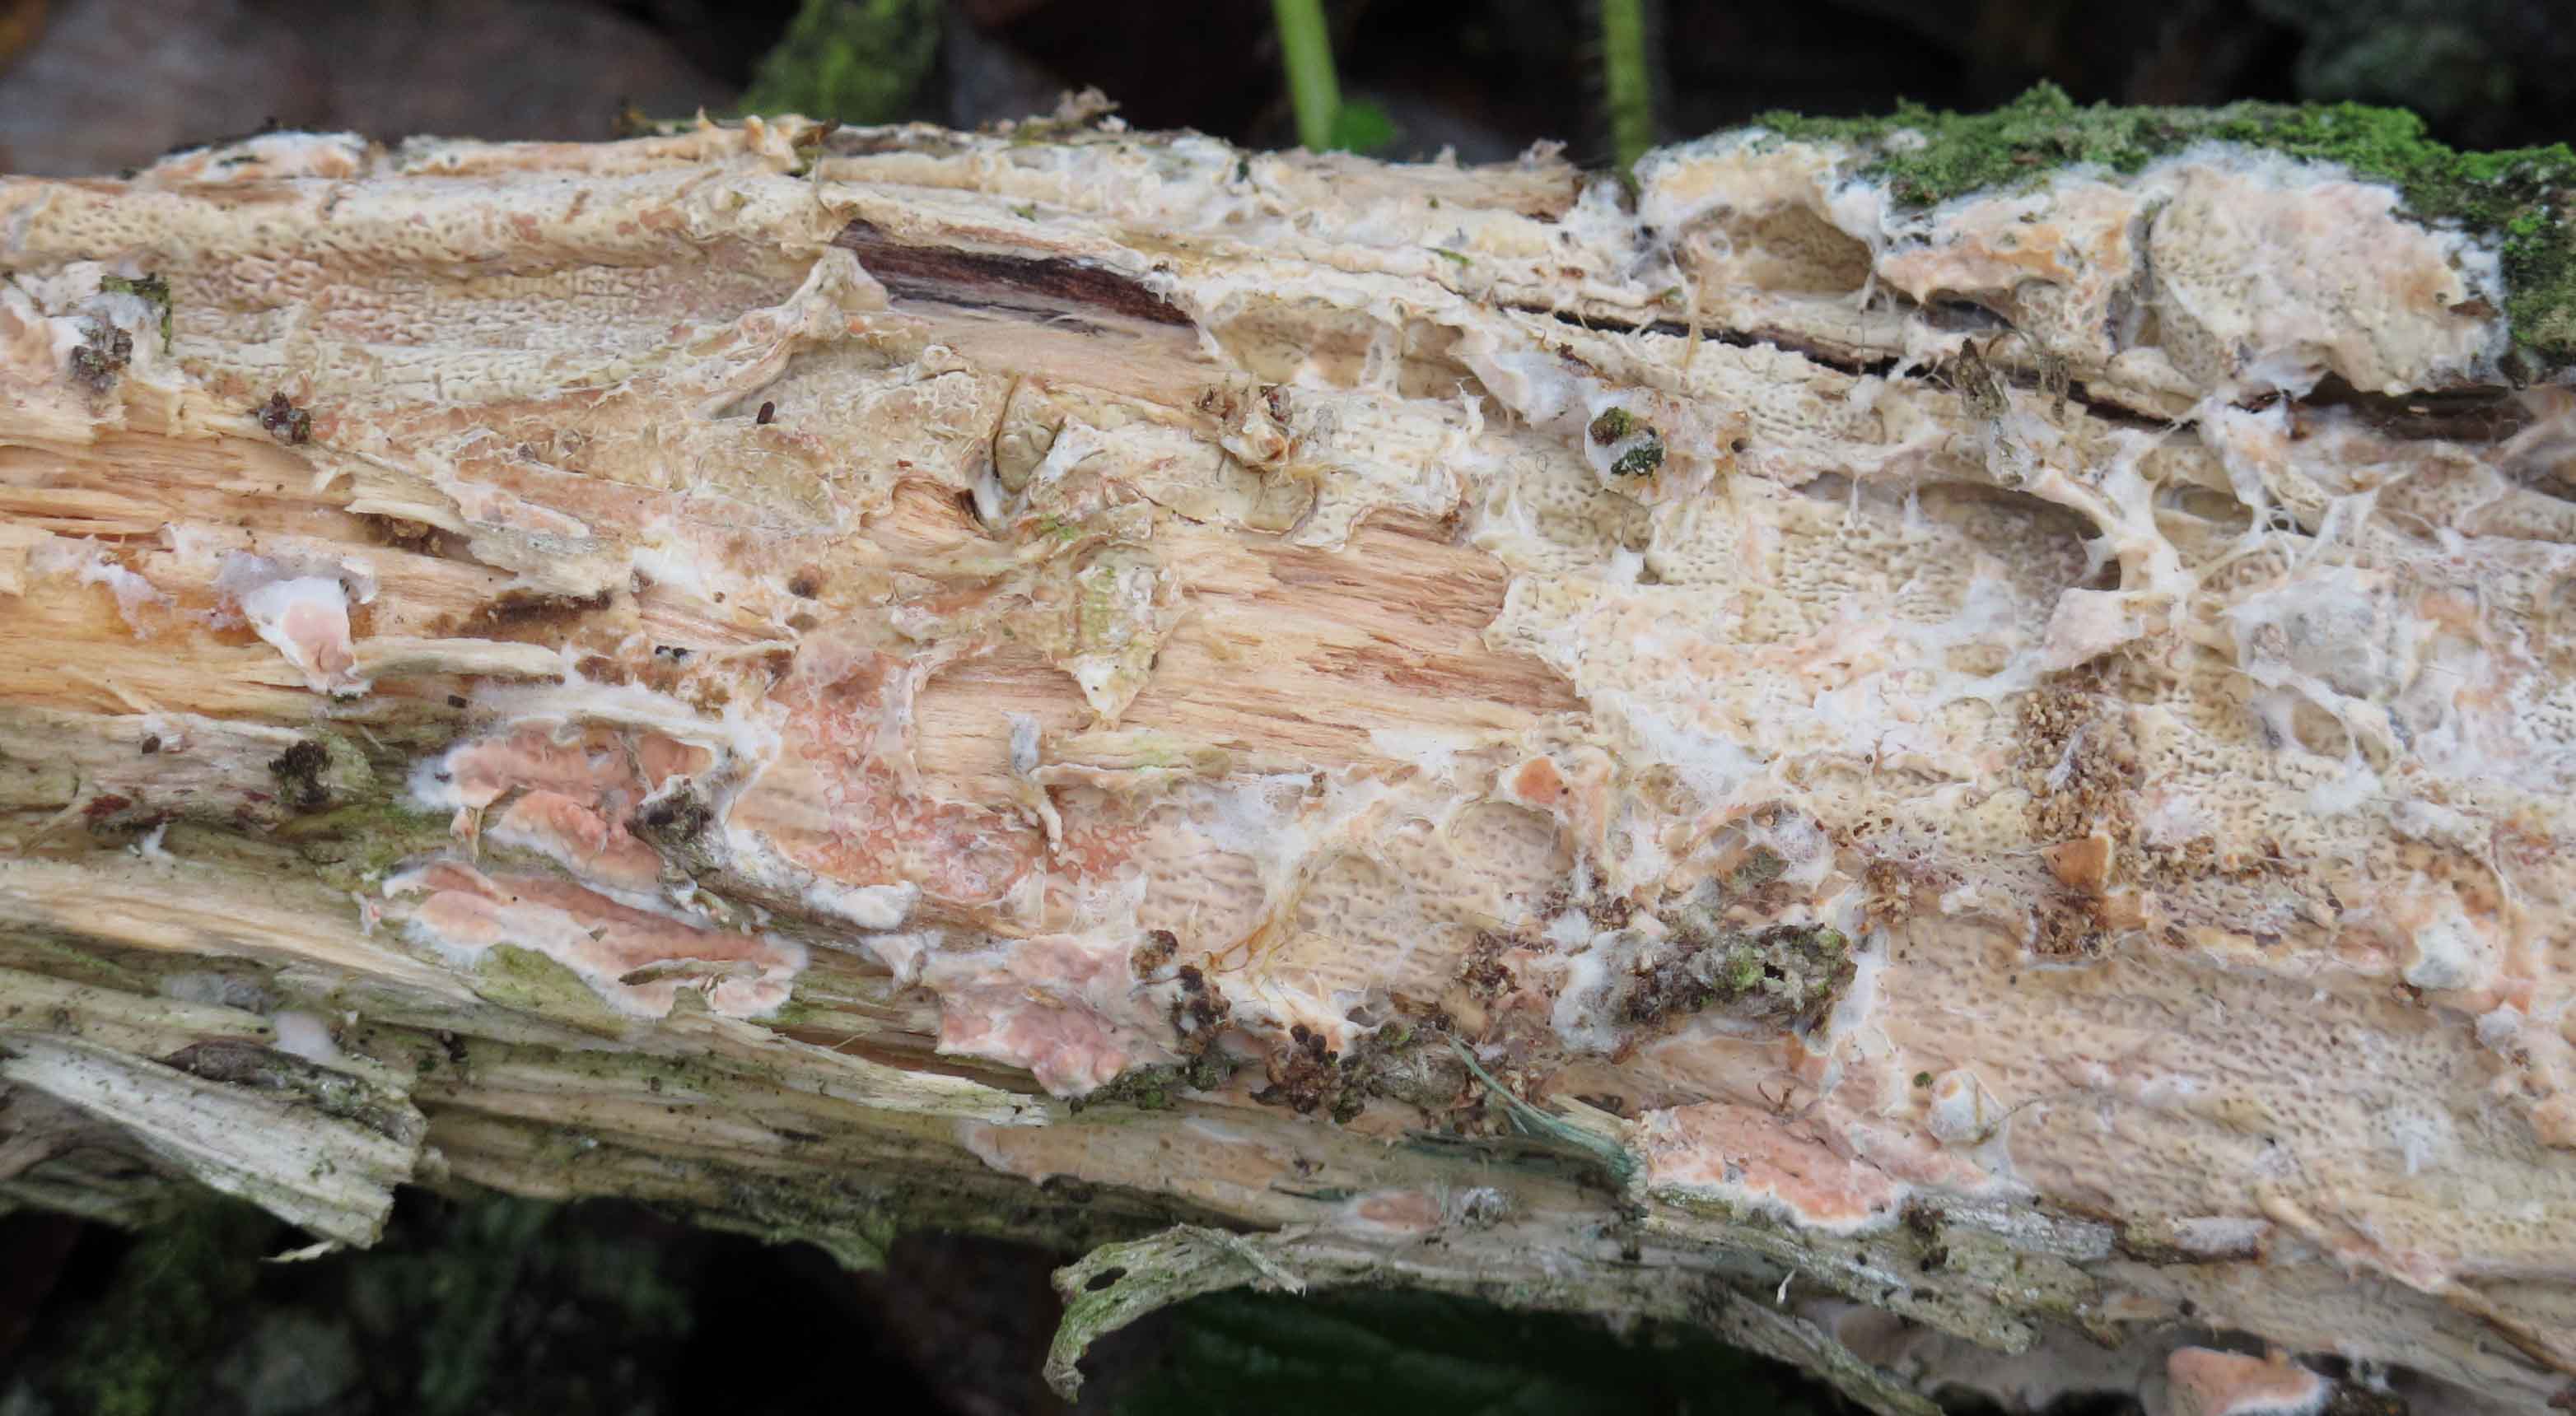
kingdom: Fungi
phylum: Basidiomycota
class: Agaricomycetes
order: Polyporales
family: Irpicaceae
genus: Crystallicutis
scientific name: Crystallicutis serpens
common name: gråviolet barkhinde
